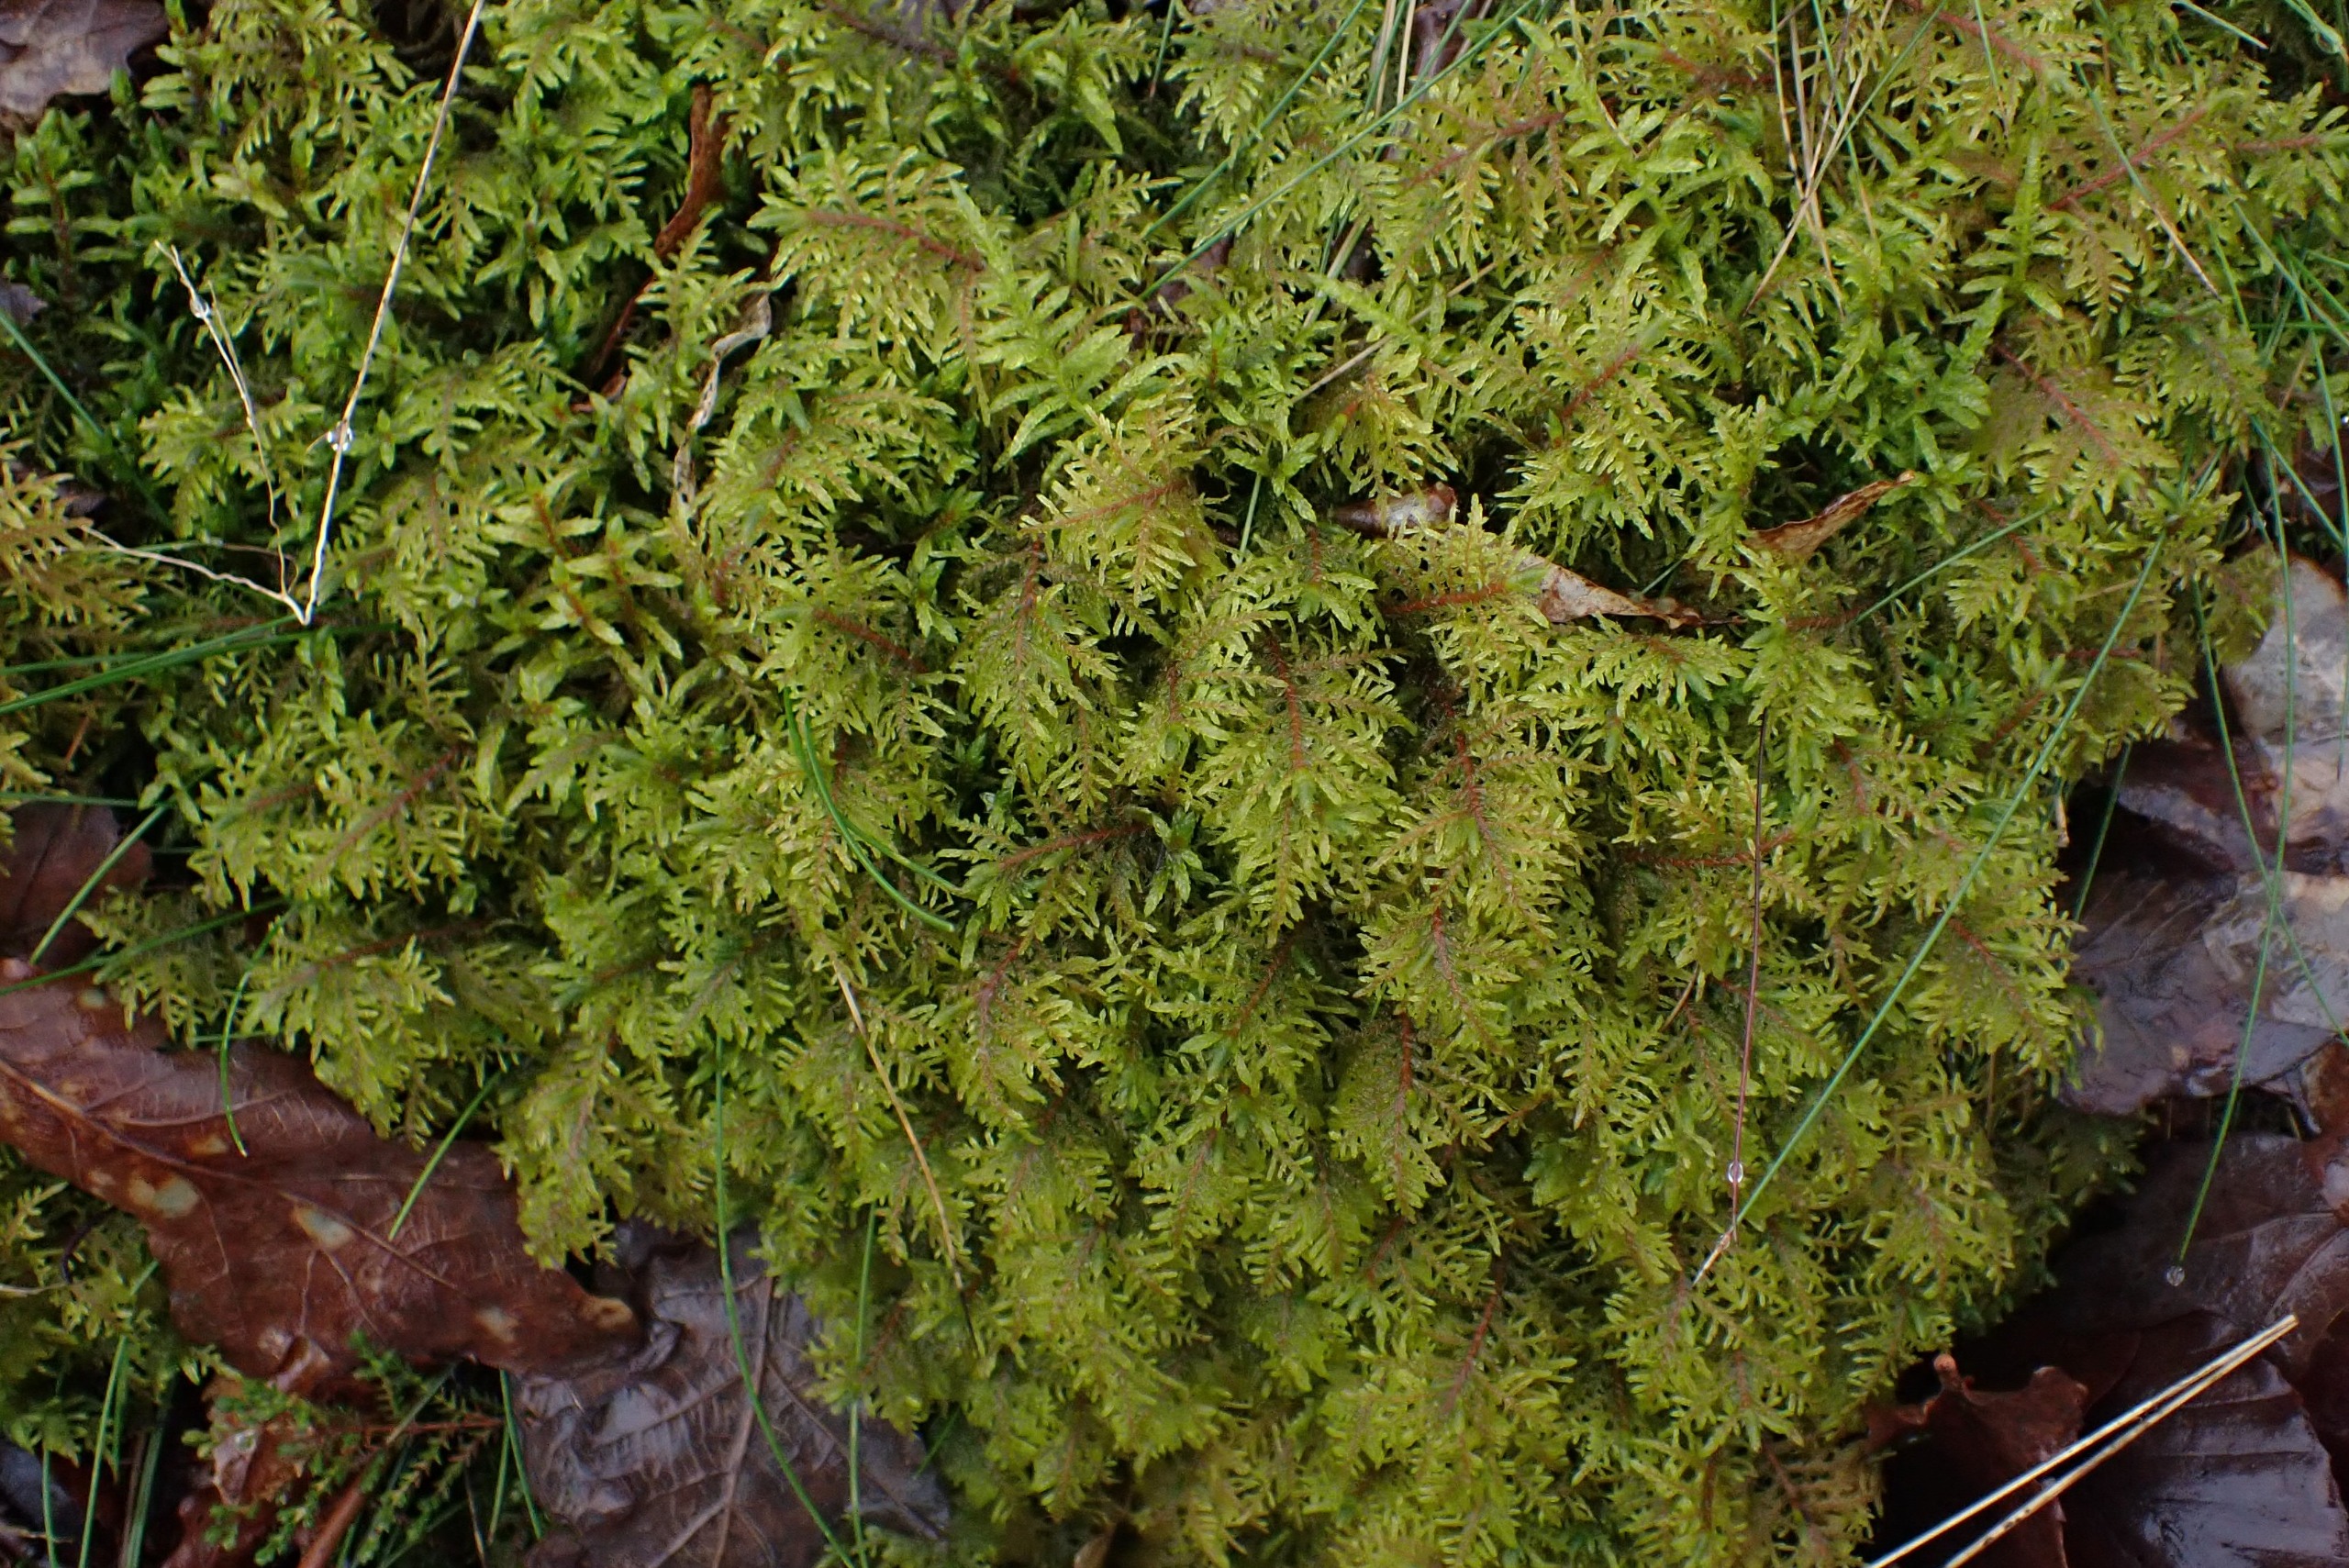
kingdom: Plantae
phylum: Bryophyta
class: Bryopsida
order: Hypnales
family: Hylocomiaceae
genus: Hylocomium
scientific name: Hylocomium splendens
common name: Almindelig etagemos
